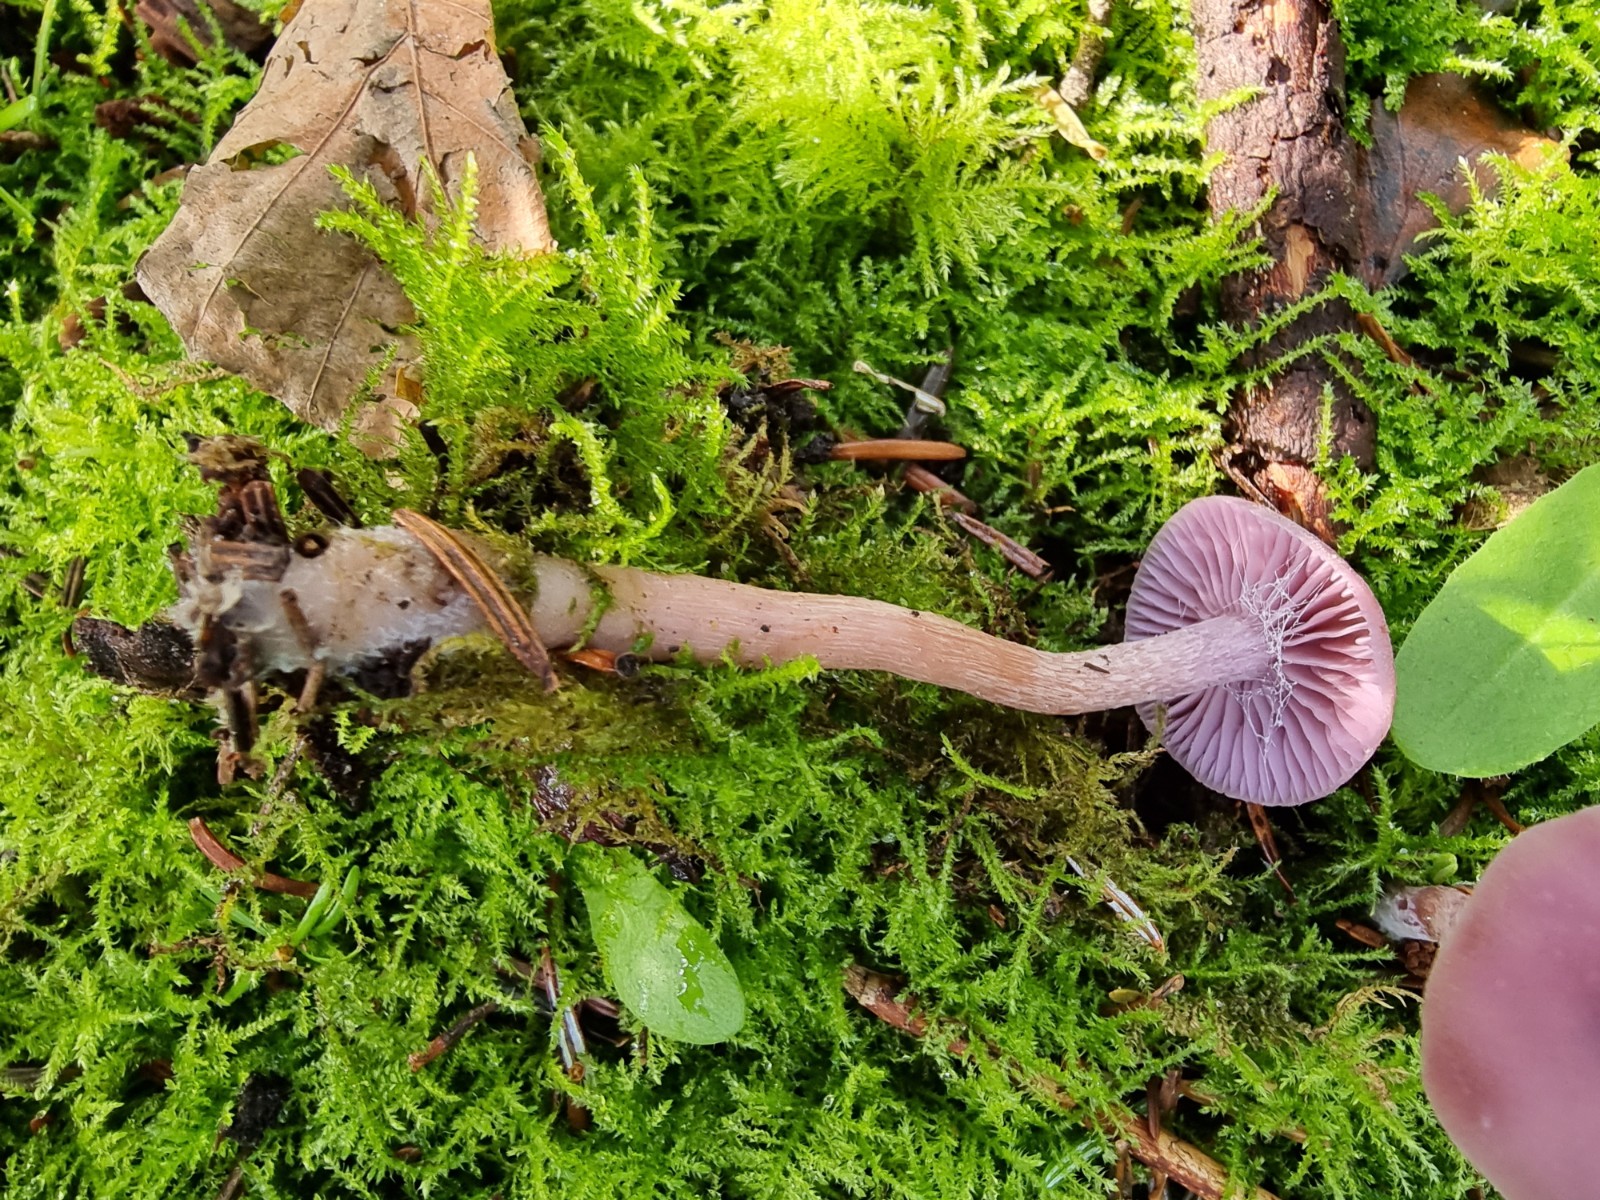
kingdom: Fungi
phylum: Basidiomycota
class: Agaricomycetes
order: Agaricales
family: Hydnangiaceae
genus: Laccaria
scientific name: Laccaria amethystina
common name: violet ametysthat
